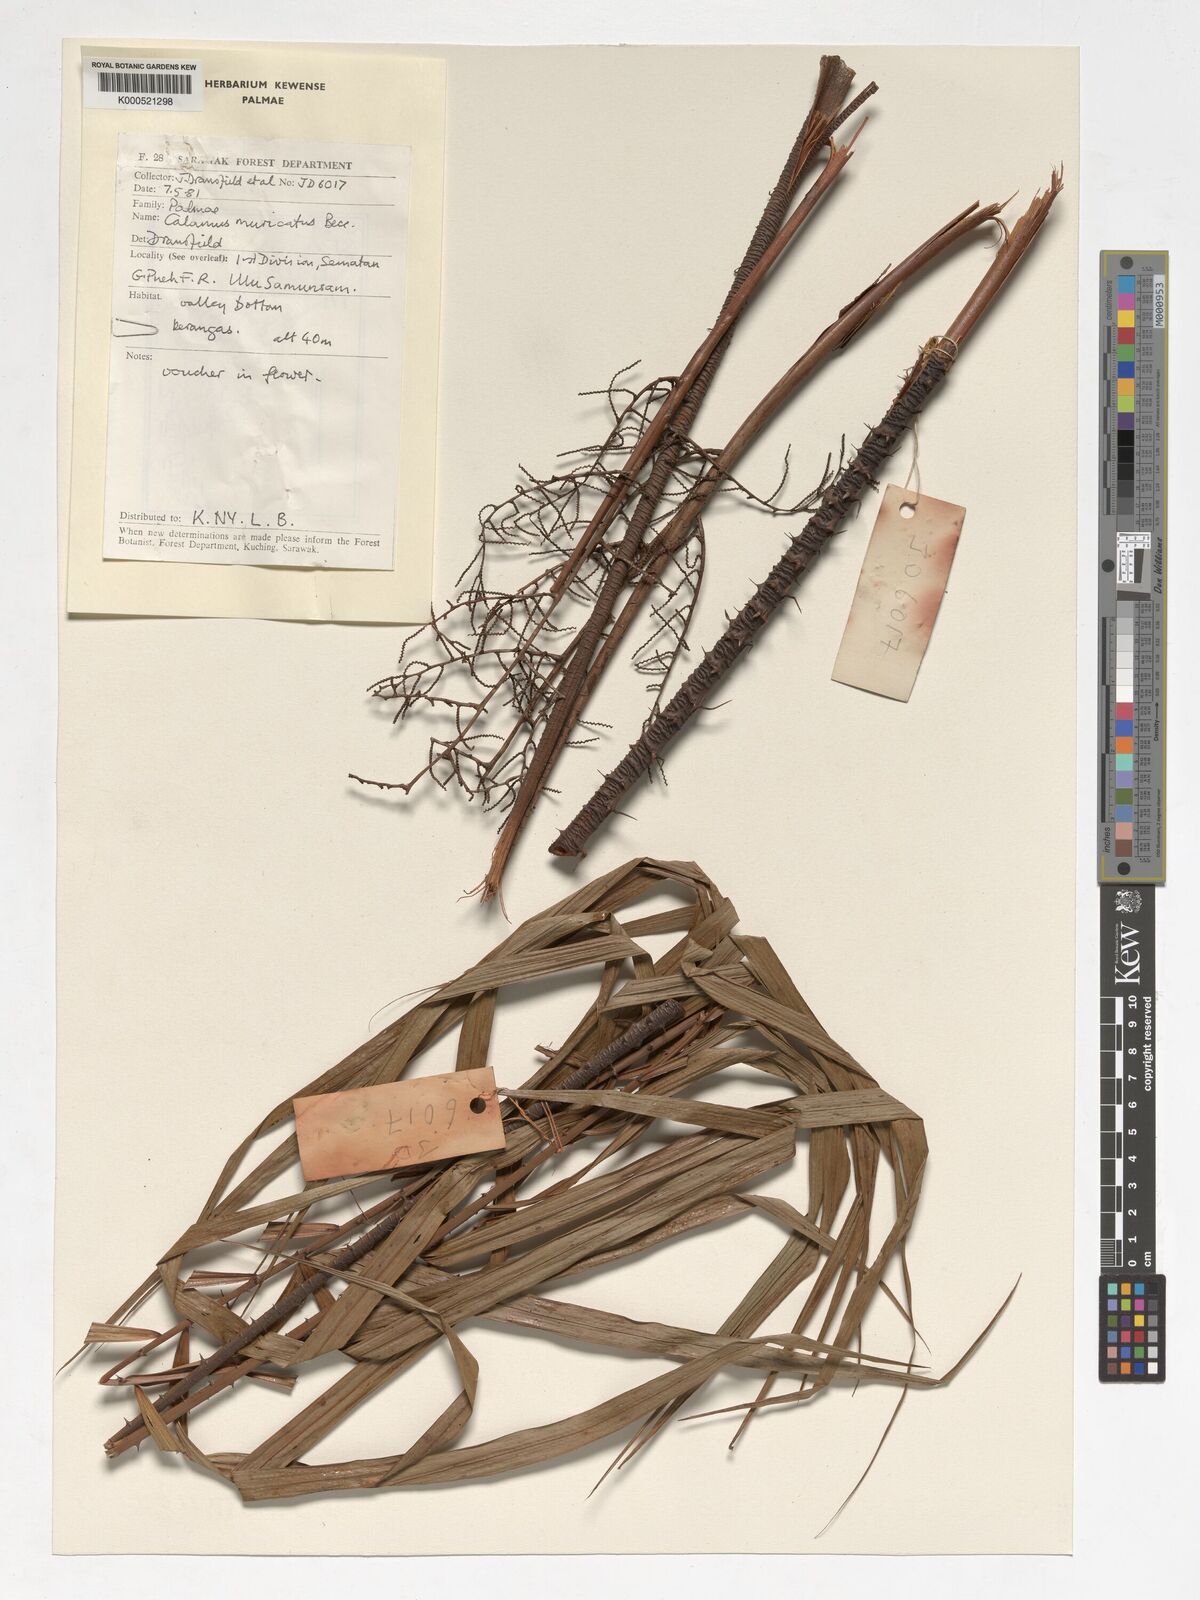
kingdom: Plantae
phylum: Tracheophyta
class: Liliopsida
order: Arecales
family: Arecaceae
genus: Calamus
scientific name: Calamus muricatus
